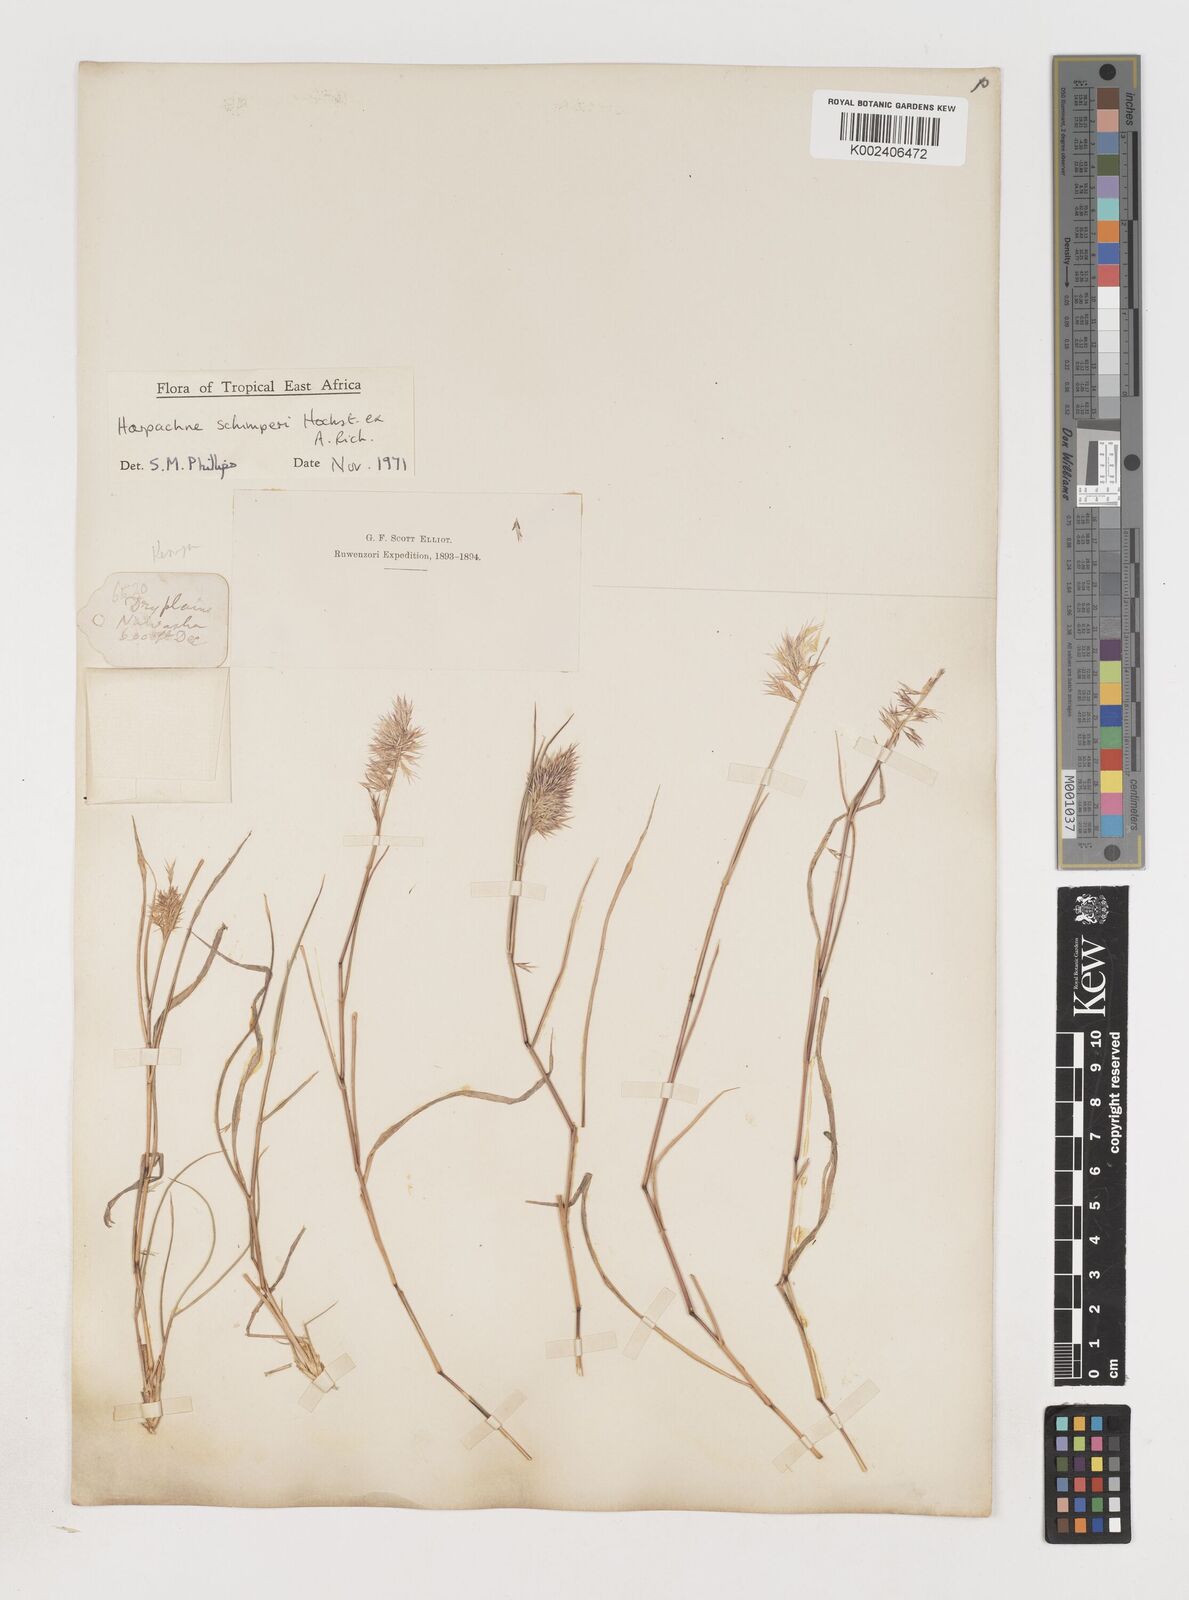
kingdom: Plantae
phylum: Tracheophyta
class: Liliopsida
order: Poales
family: Poaceae
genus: Harpachne
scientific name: Harpachne schimperi
